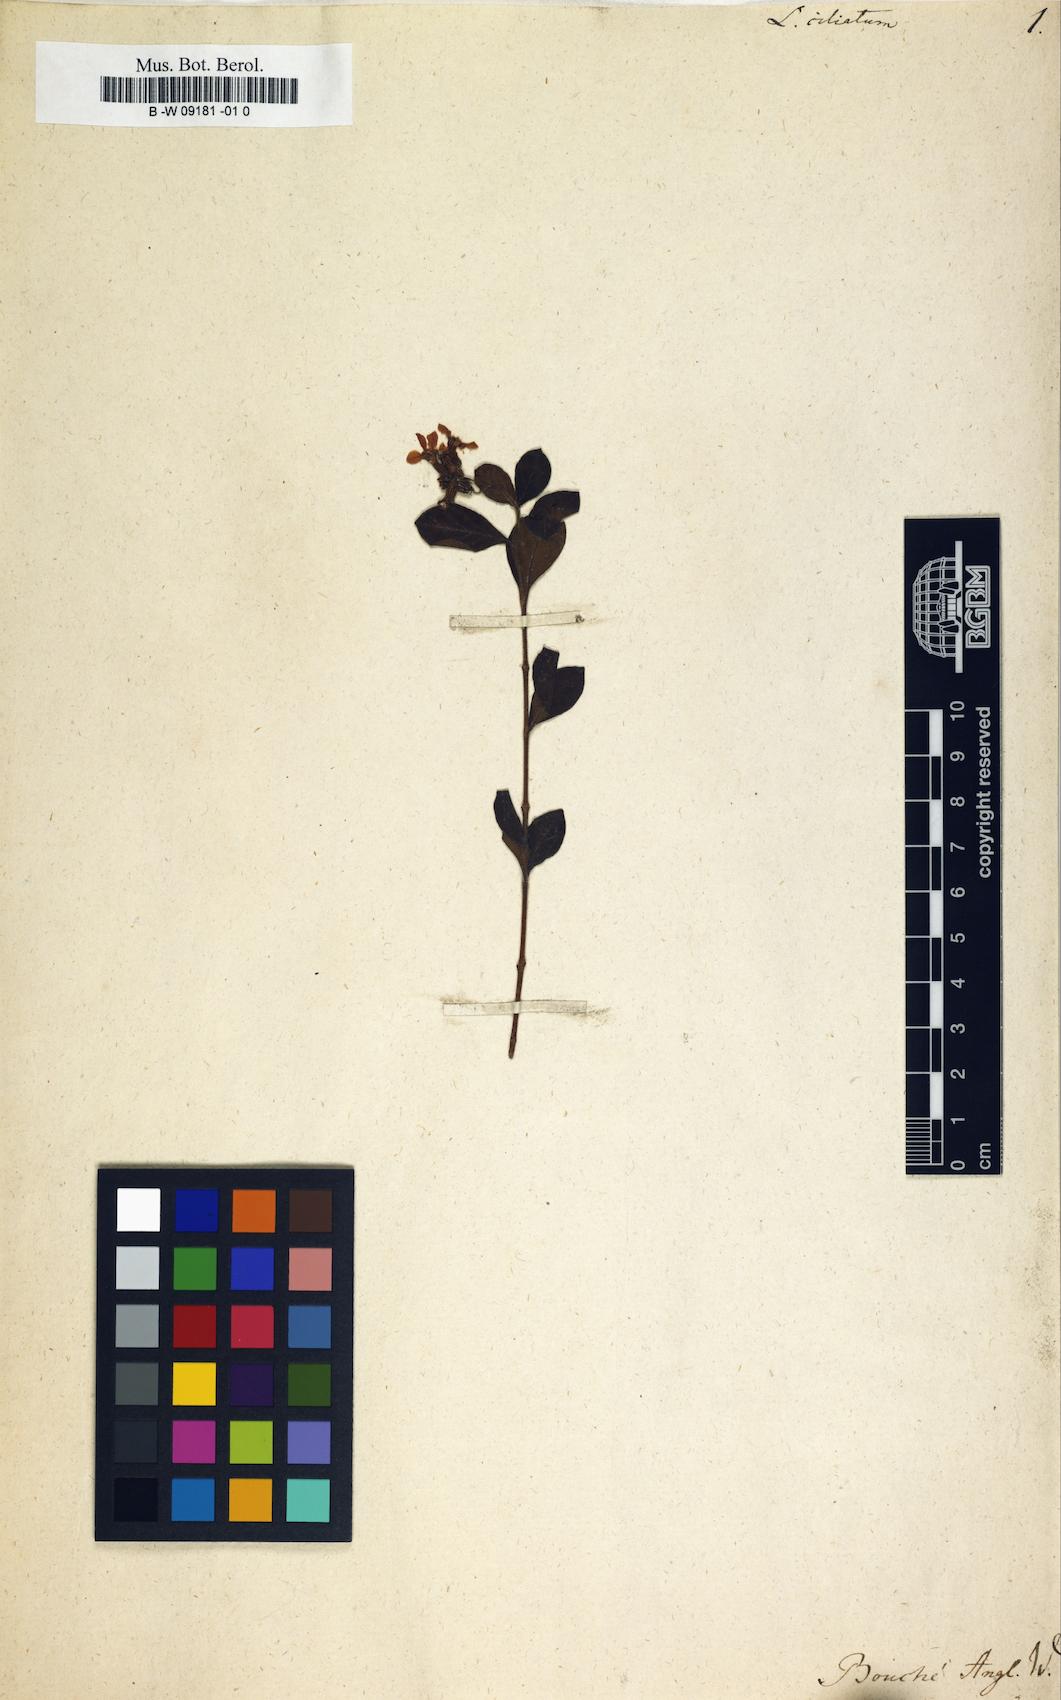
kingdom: Plantae
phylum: Tracheophyta
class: Magnoliopsida
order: Myrtales
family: Lythraceae
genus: Cuphea
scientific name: Cuphea decandra
